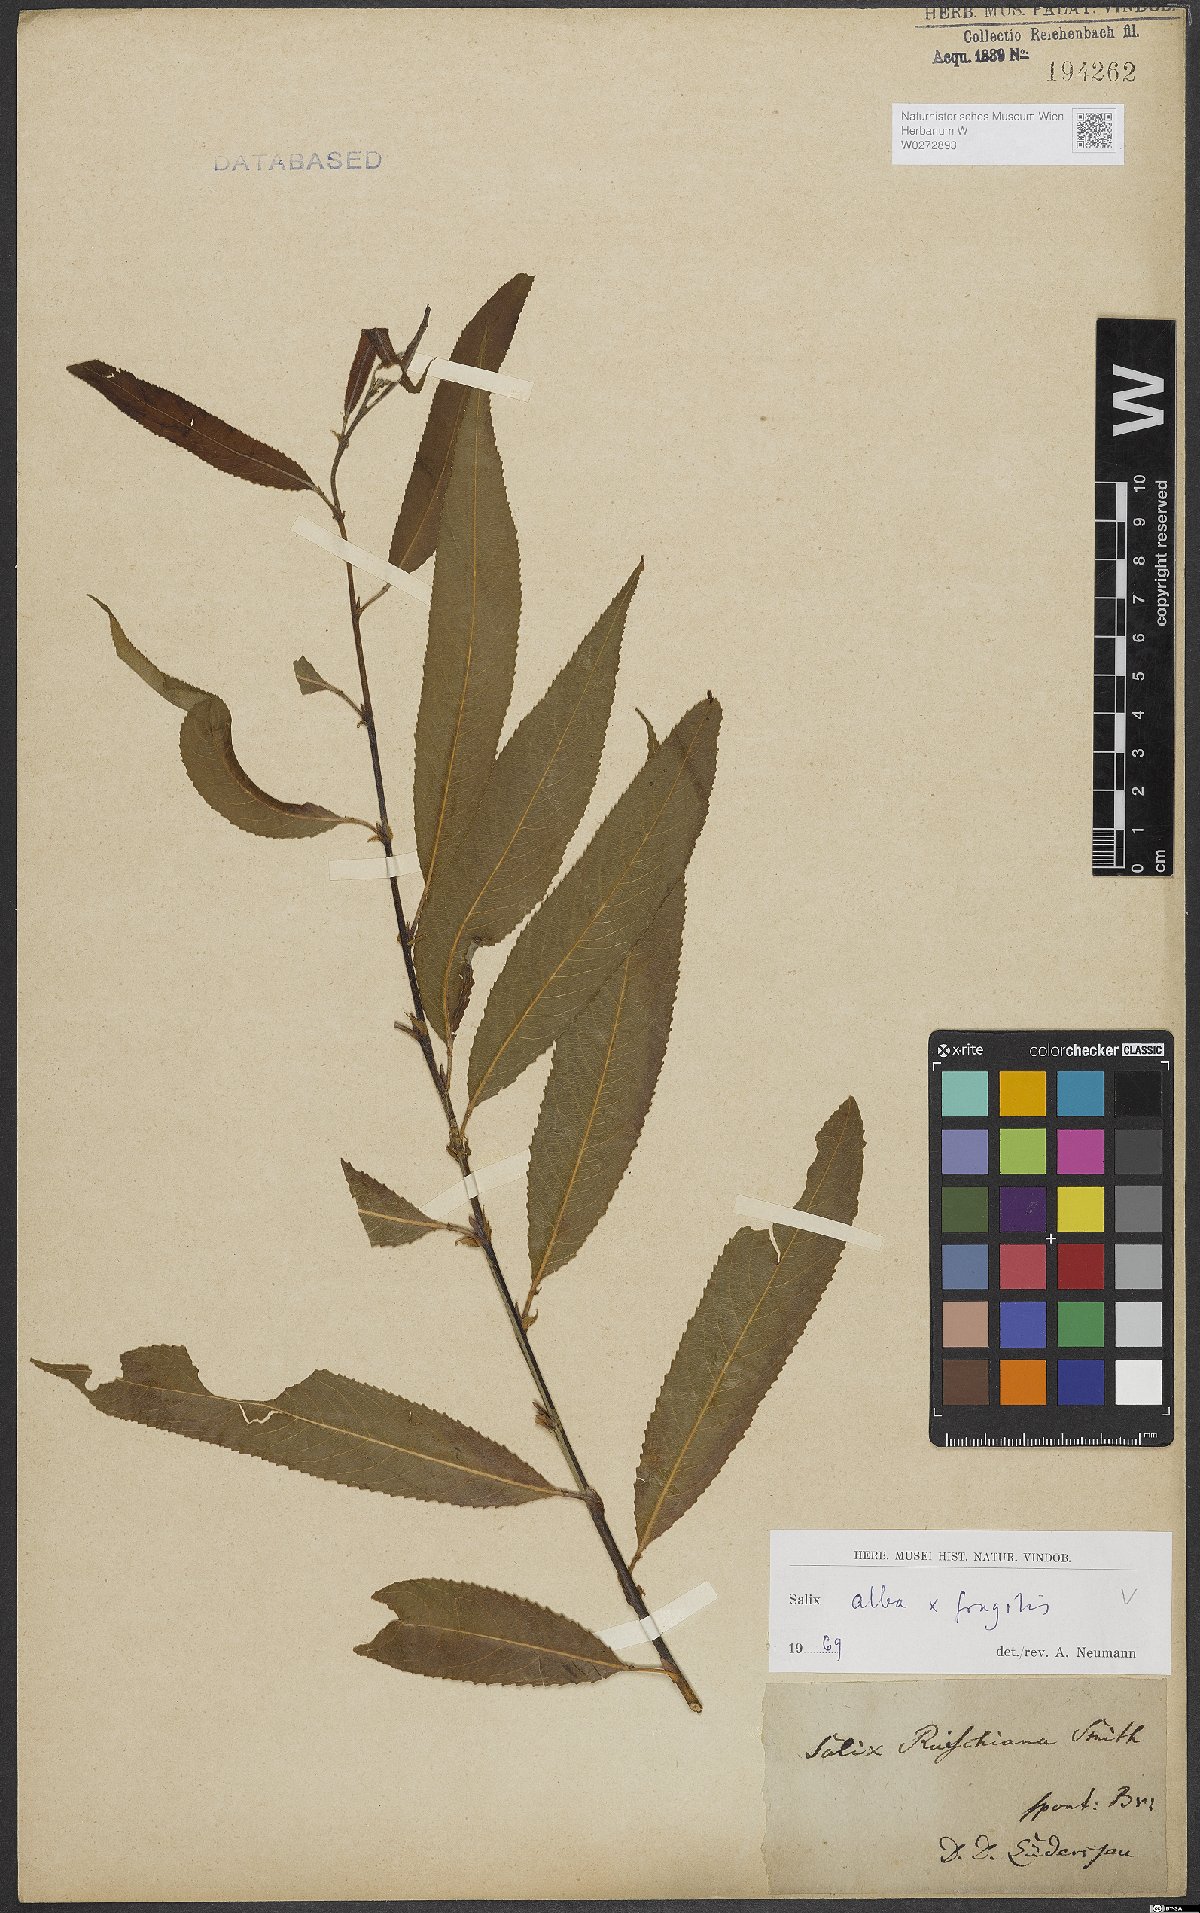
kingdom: Plantae
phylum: Tracheophyta
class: Magnoliopsida
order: Malpighiales
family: Salicaceae
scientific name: Salicaceae
